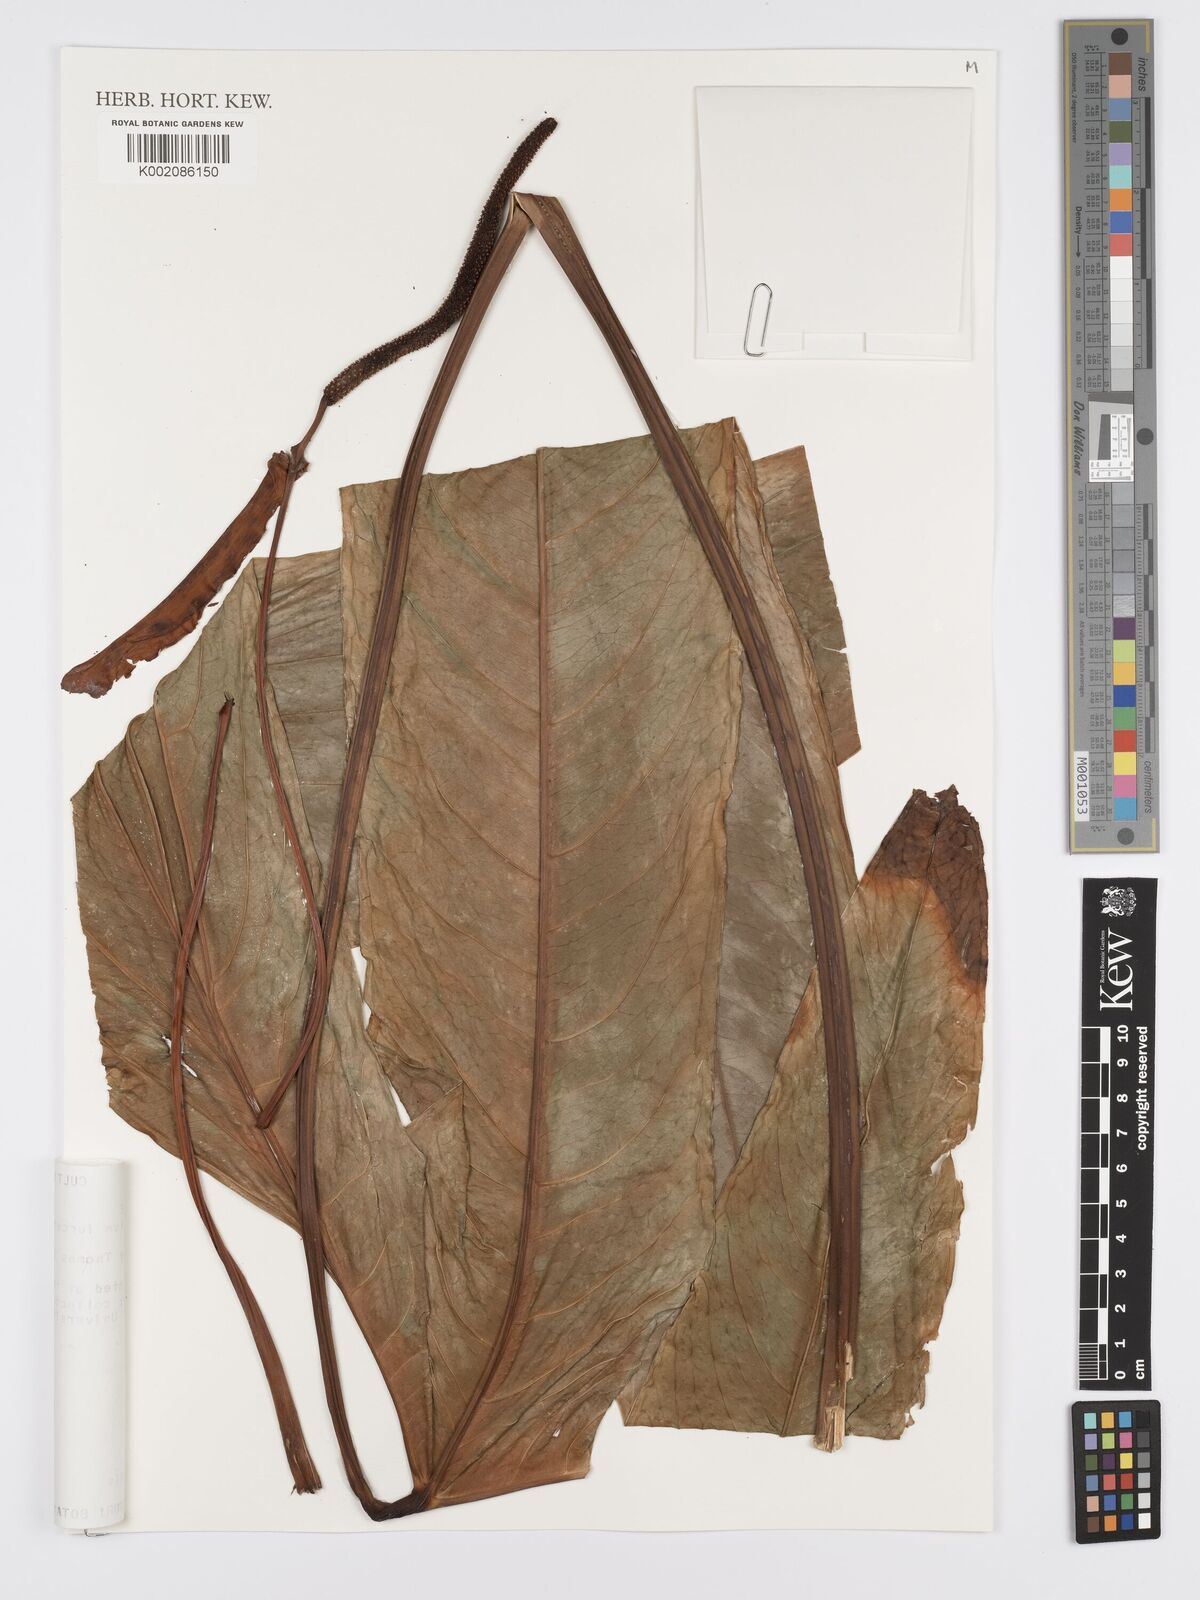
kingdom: Plantae
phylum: Tracheophyta
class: Liliopsida
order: Alismatales
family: Araceae
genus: Anthurium
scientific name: Anthurium furcatum
